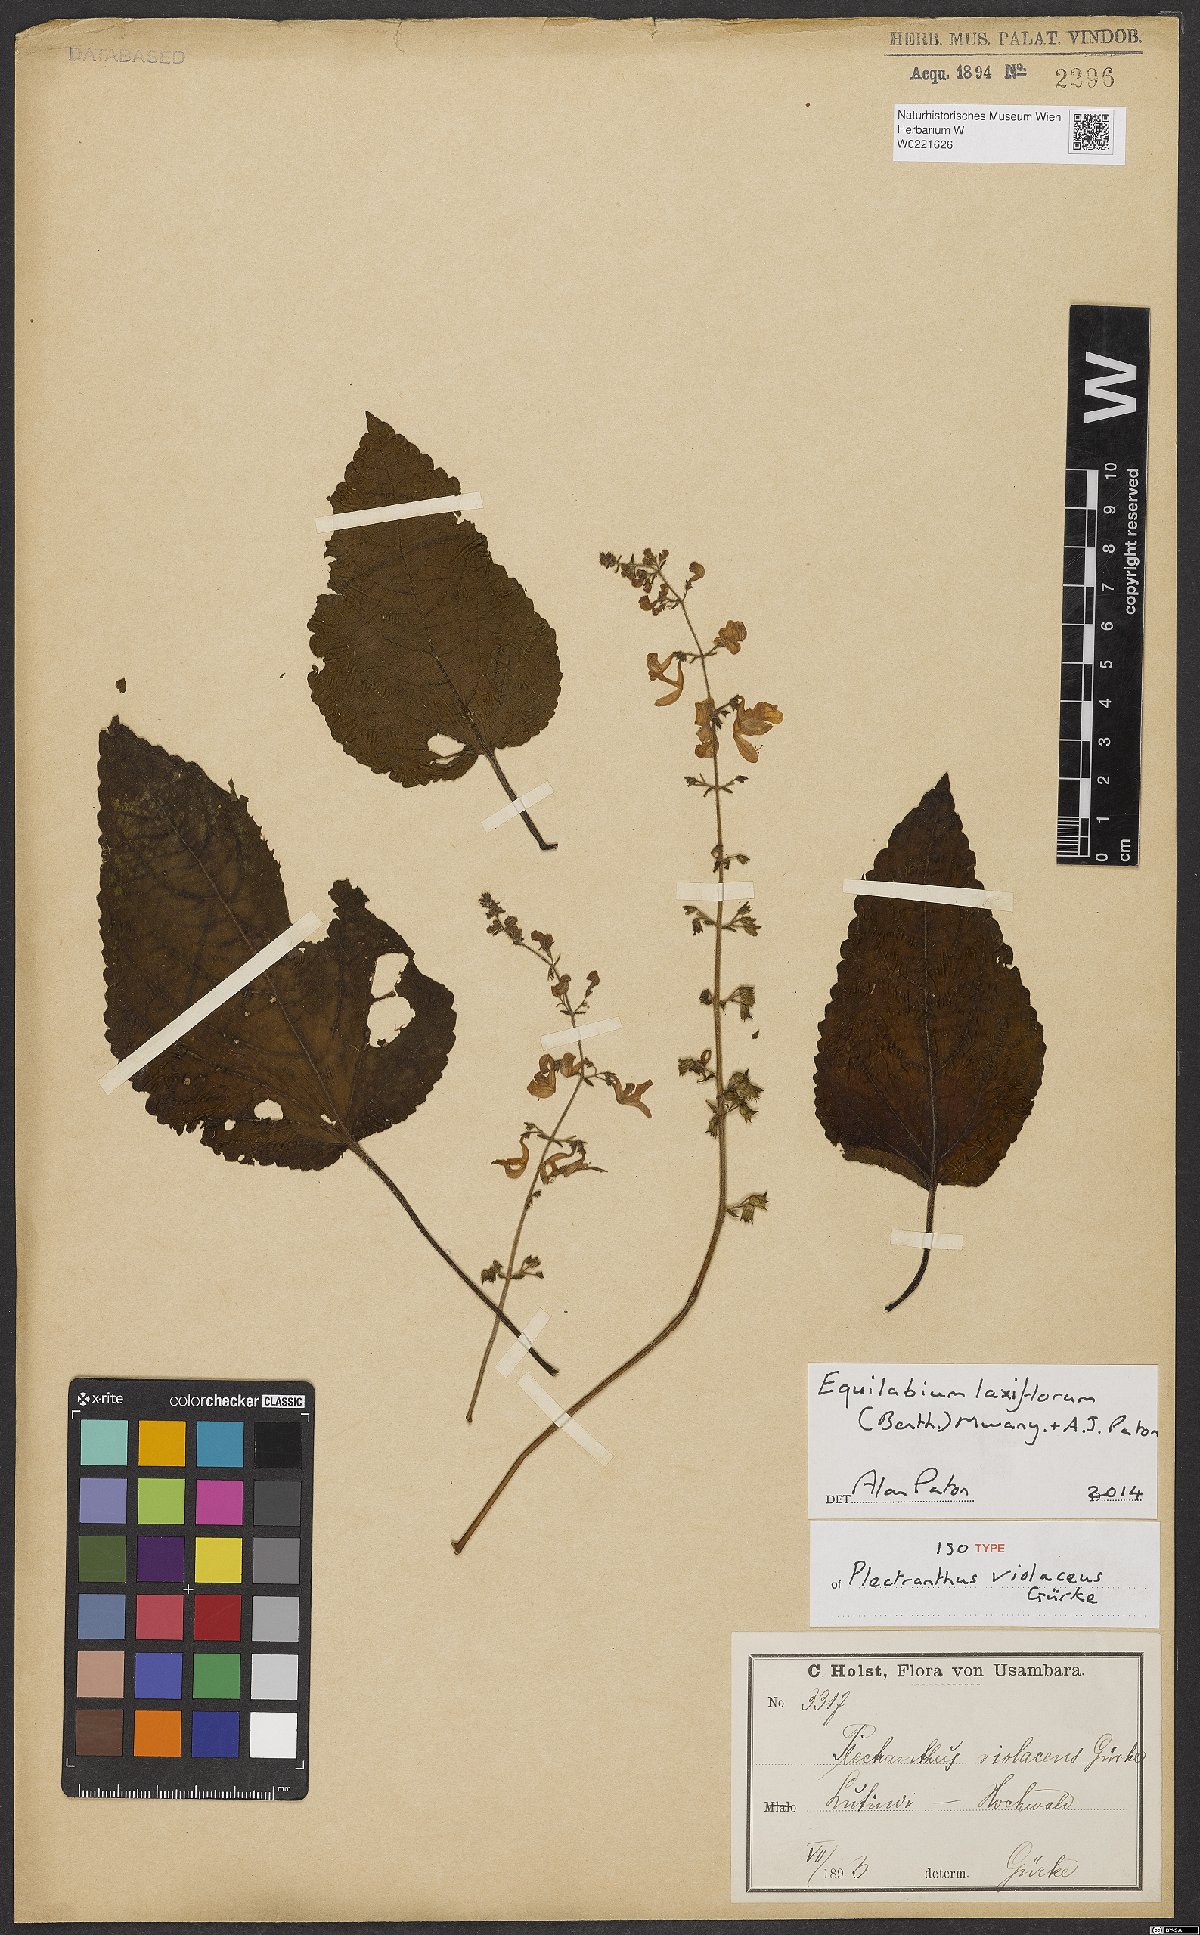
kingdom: Plantae
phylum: Tracheophyta
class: Magnoliopsida
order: Lamiales
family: Lamiaceae
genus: Equilabium
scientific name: Equilabium laxiflorum
